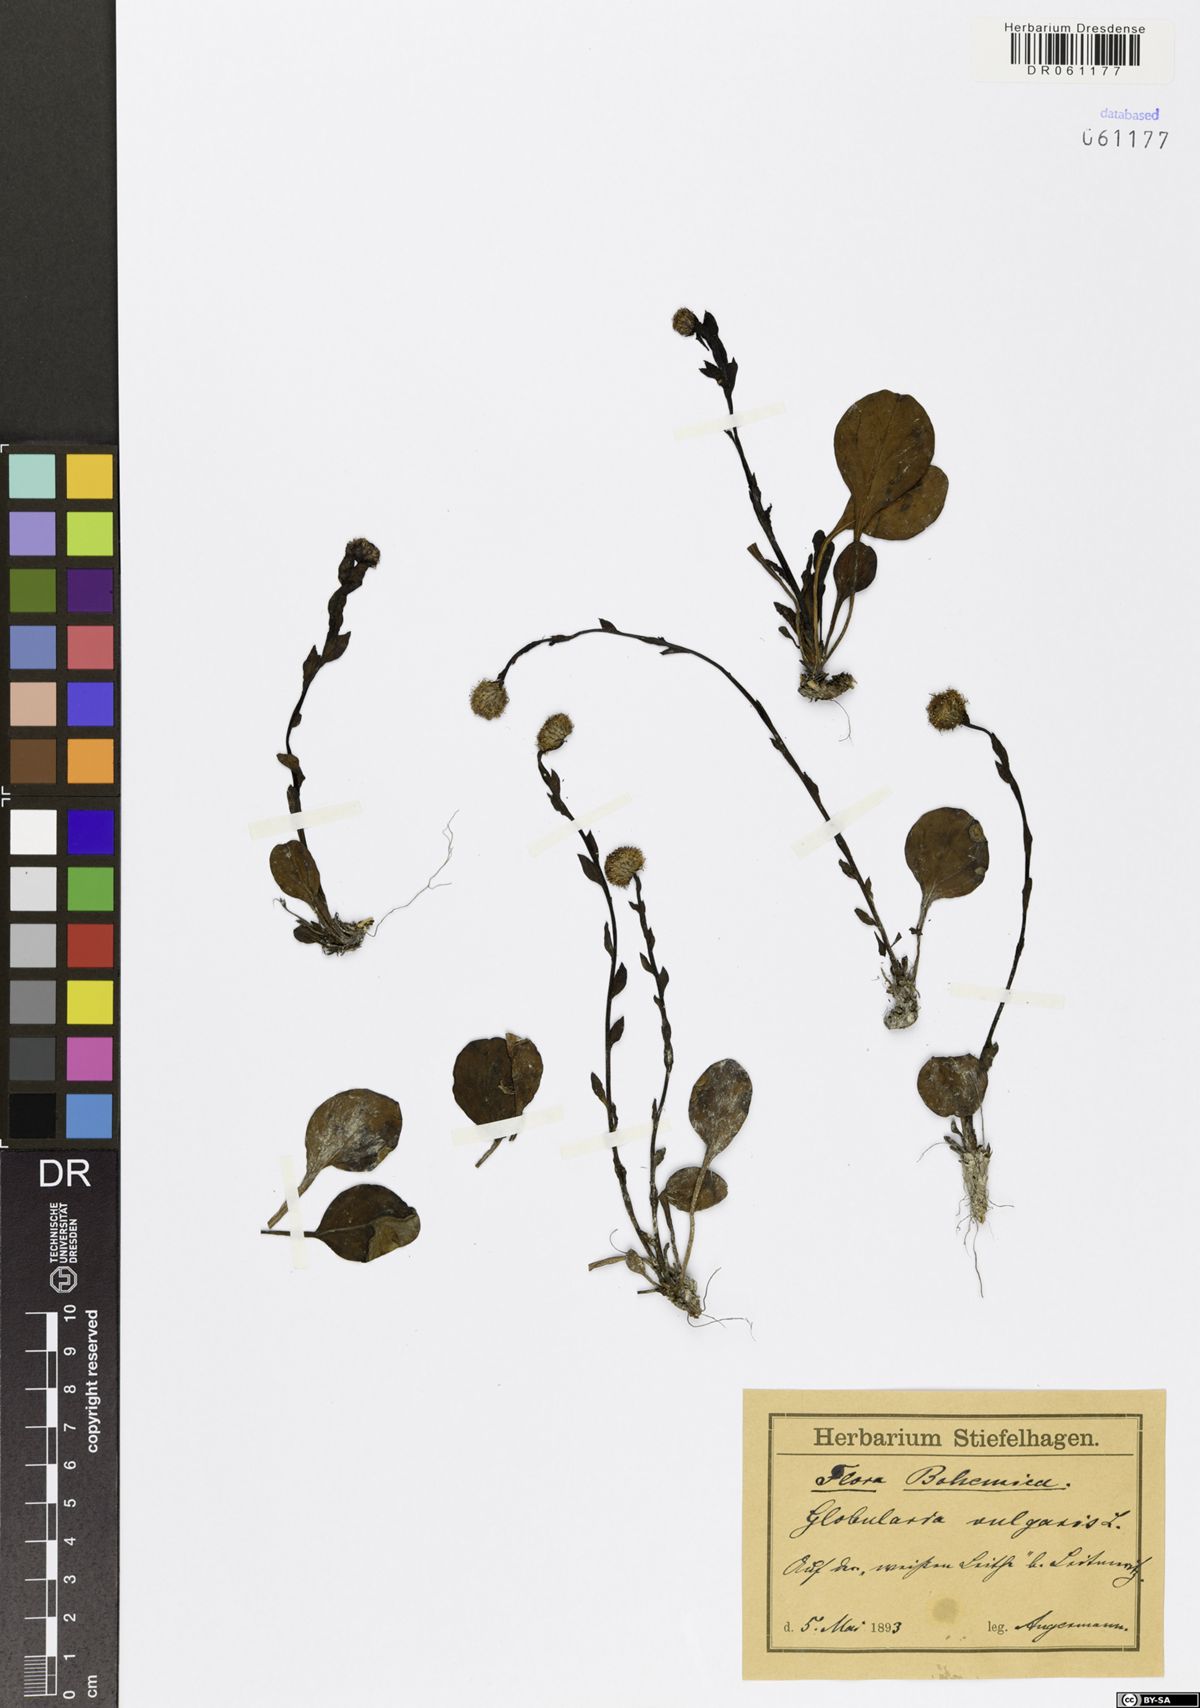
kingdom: Plantae
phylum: Tracheophyta
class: Magnoliopsida
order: Lamiales
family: Plantaginaceae
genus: Globularia
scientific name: Globularia vulgaris
